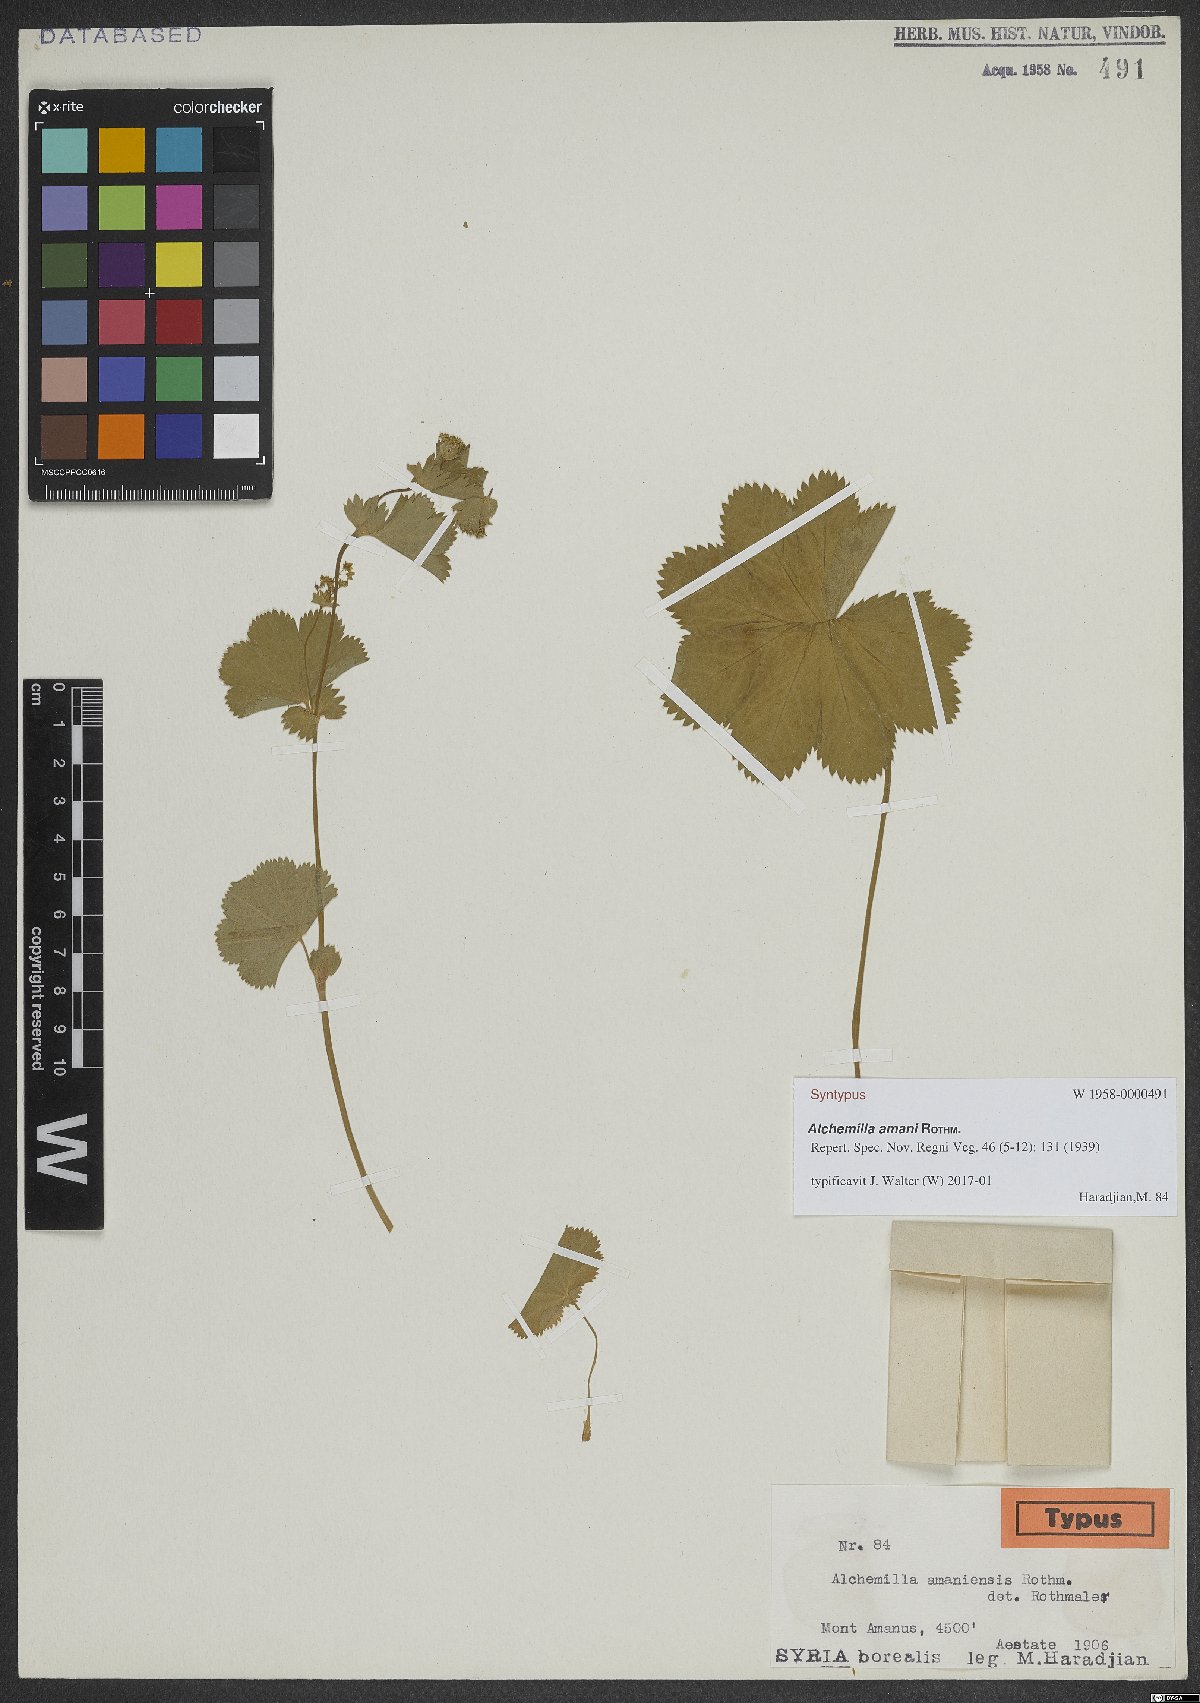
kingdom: Plantae
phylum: Tracheophyta
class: Magnoliopsida
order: Rosales
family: Rosaceae
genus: Alchemilla
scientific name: Alchemilla amani
